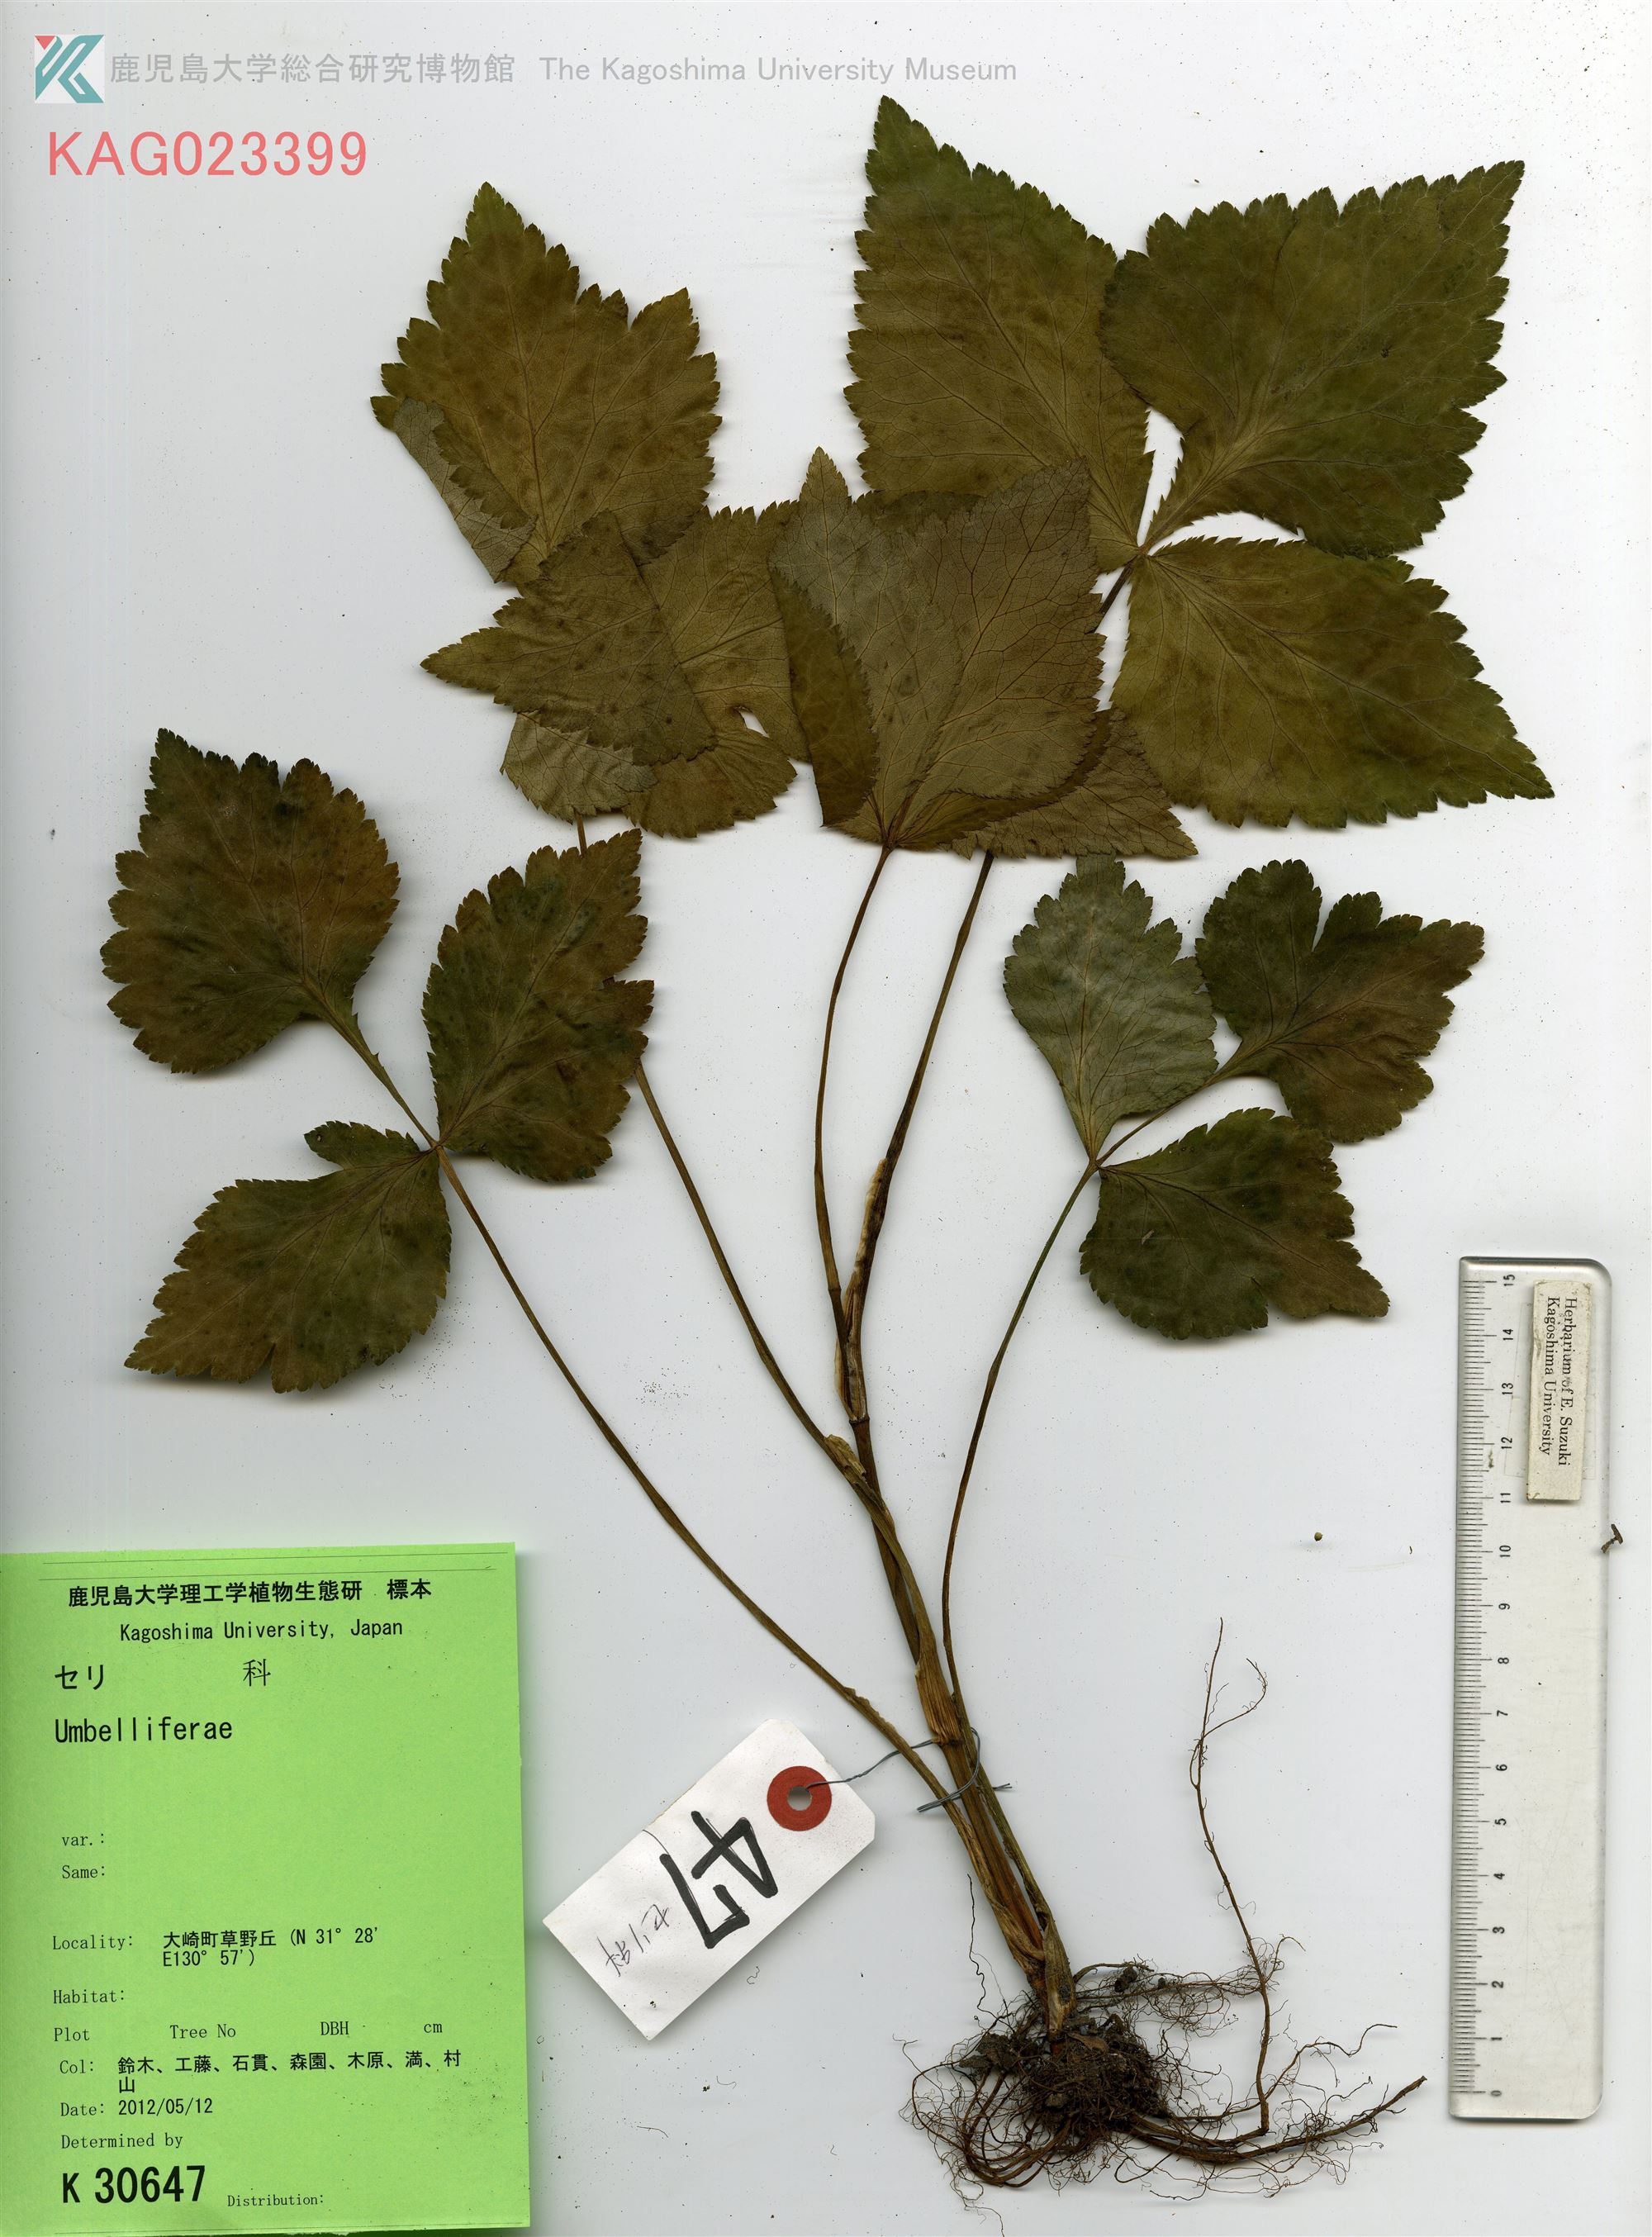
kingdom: Plantae
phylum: Tracheophyta
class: Magnoliopsida
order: Apiales
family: Apiaceae
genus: Cryptotaenia
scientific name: Cryptotaenia japonica
